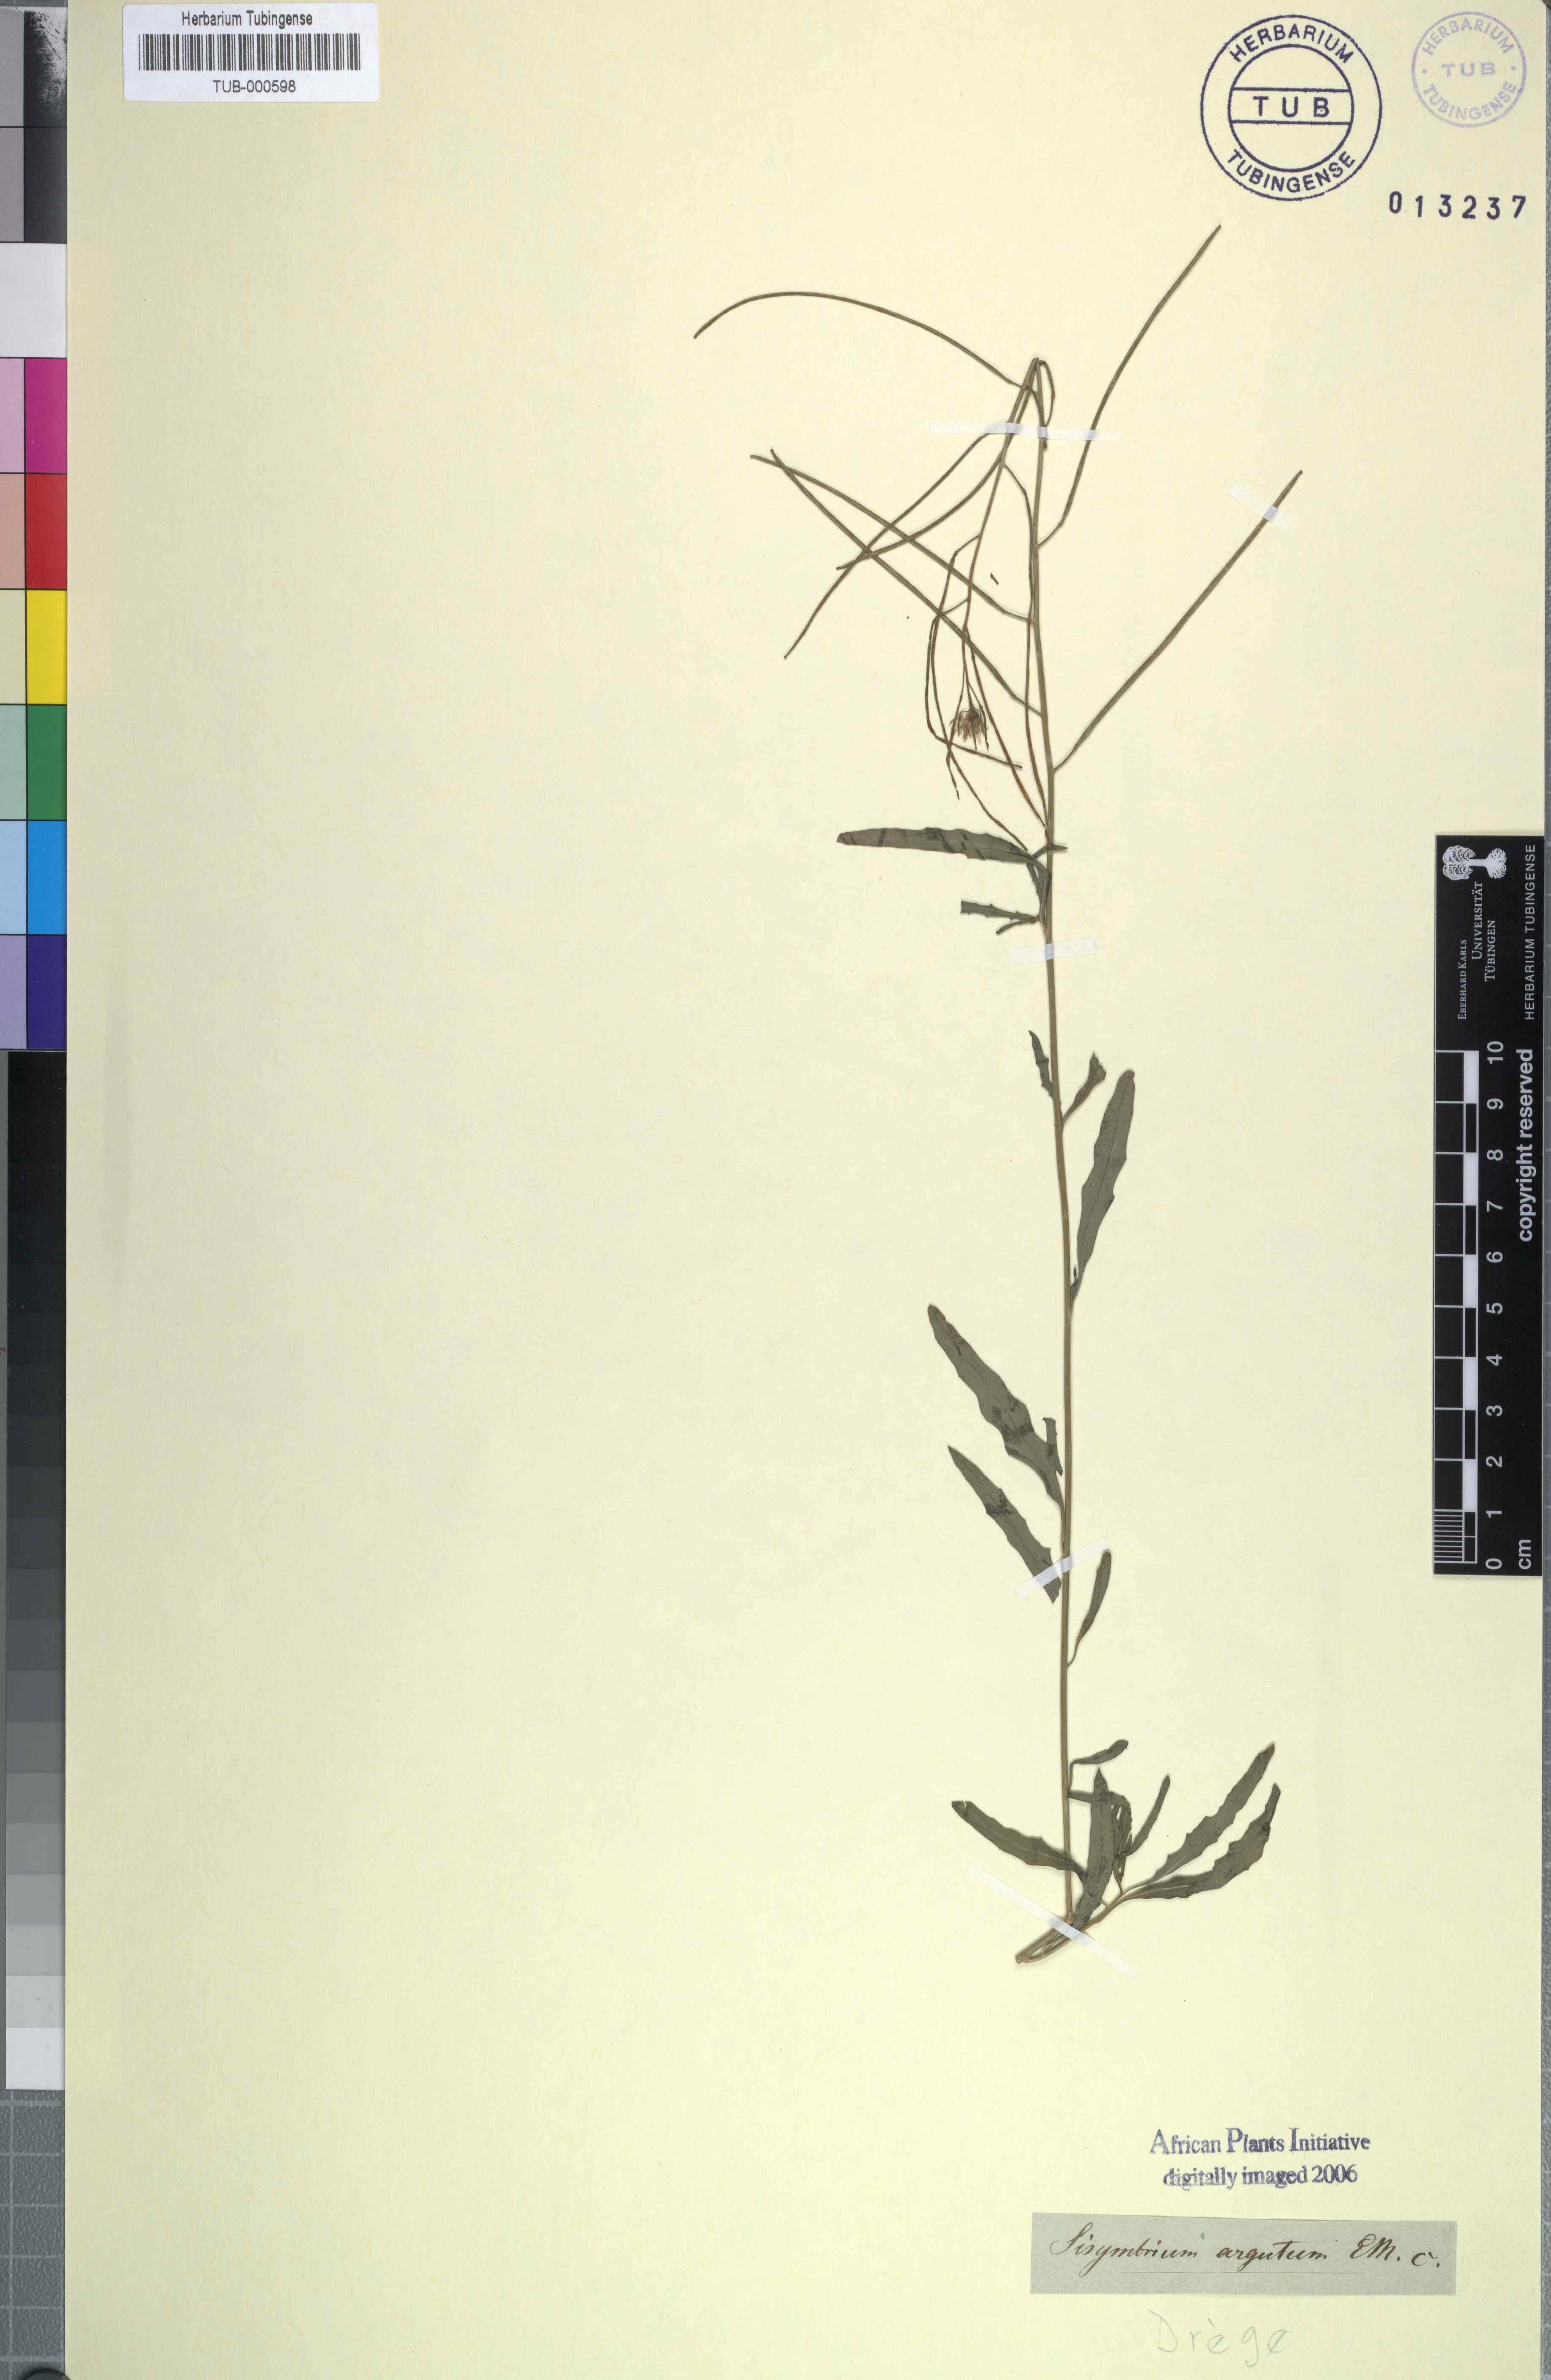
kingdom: Plantae
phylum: Tracheophyta
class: Magnoliopsida
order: Brassicales
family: Brassicaceae
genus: Sisymbrium
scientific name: Sisymbrium capense
